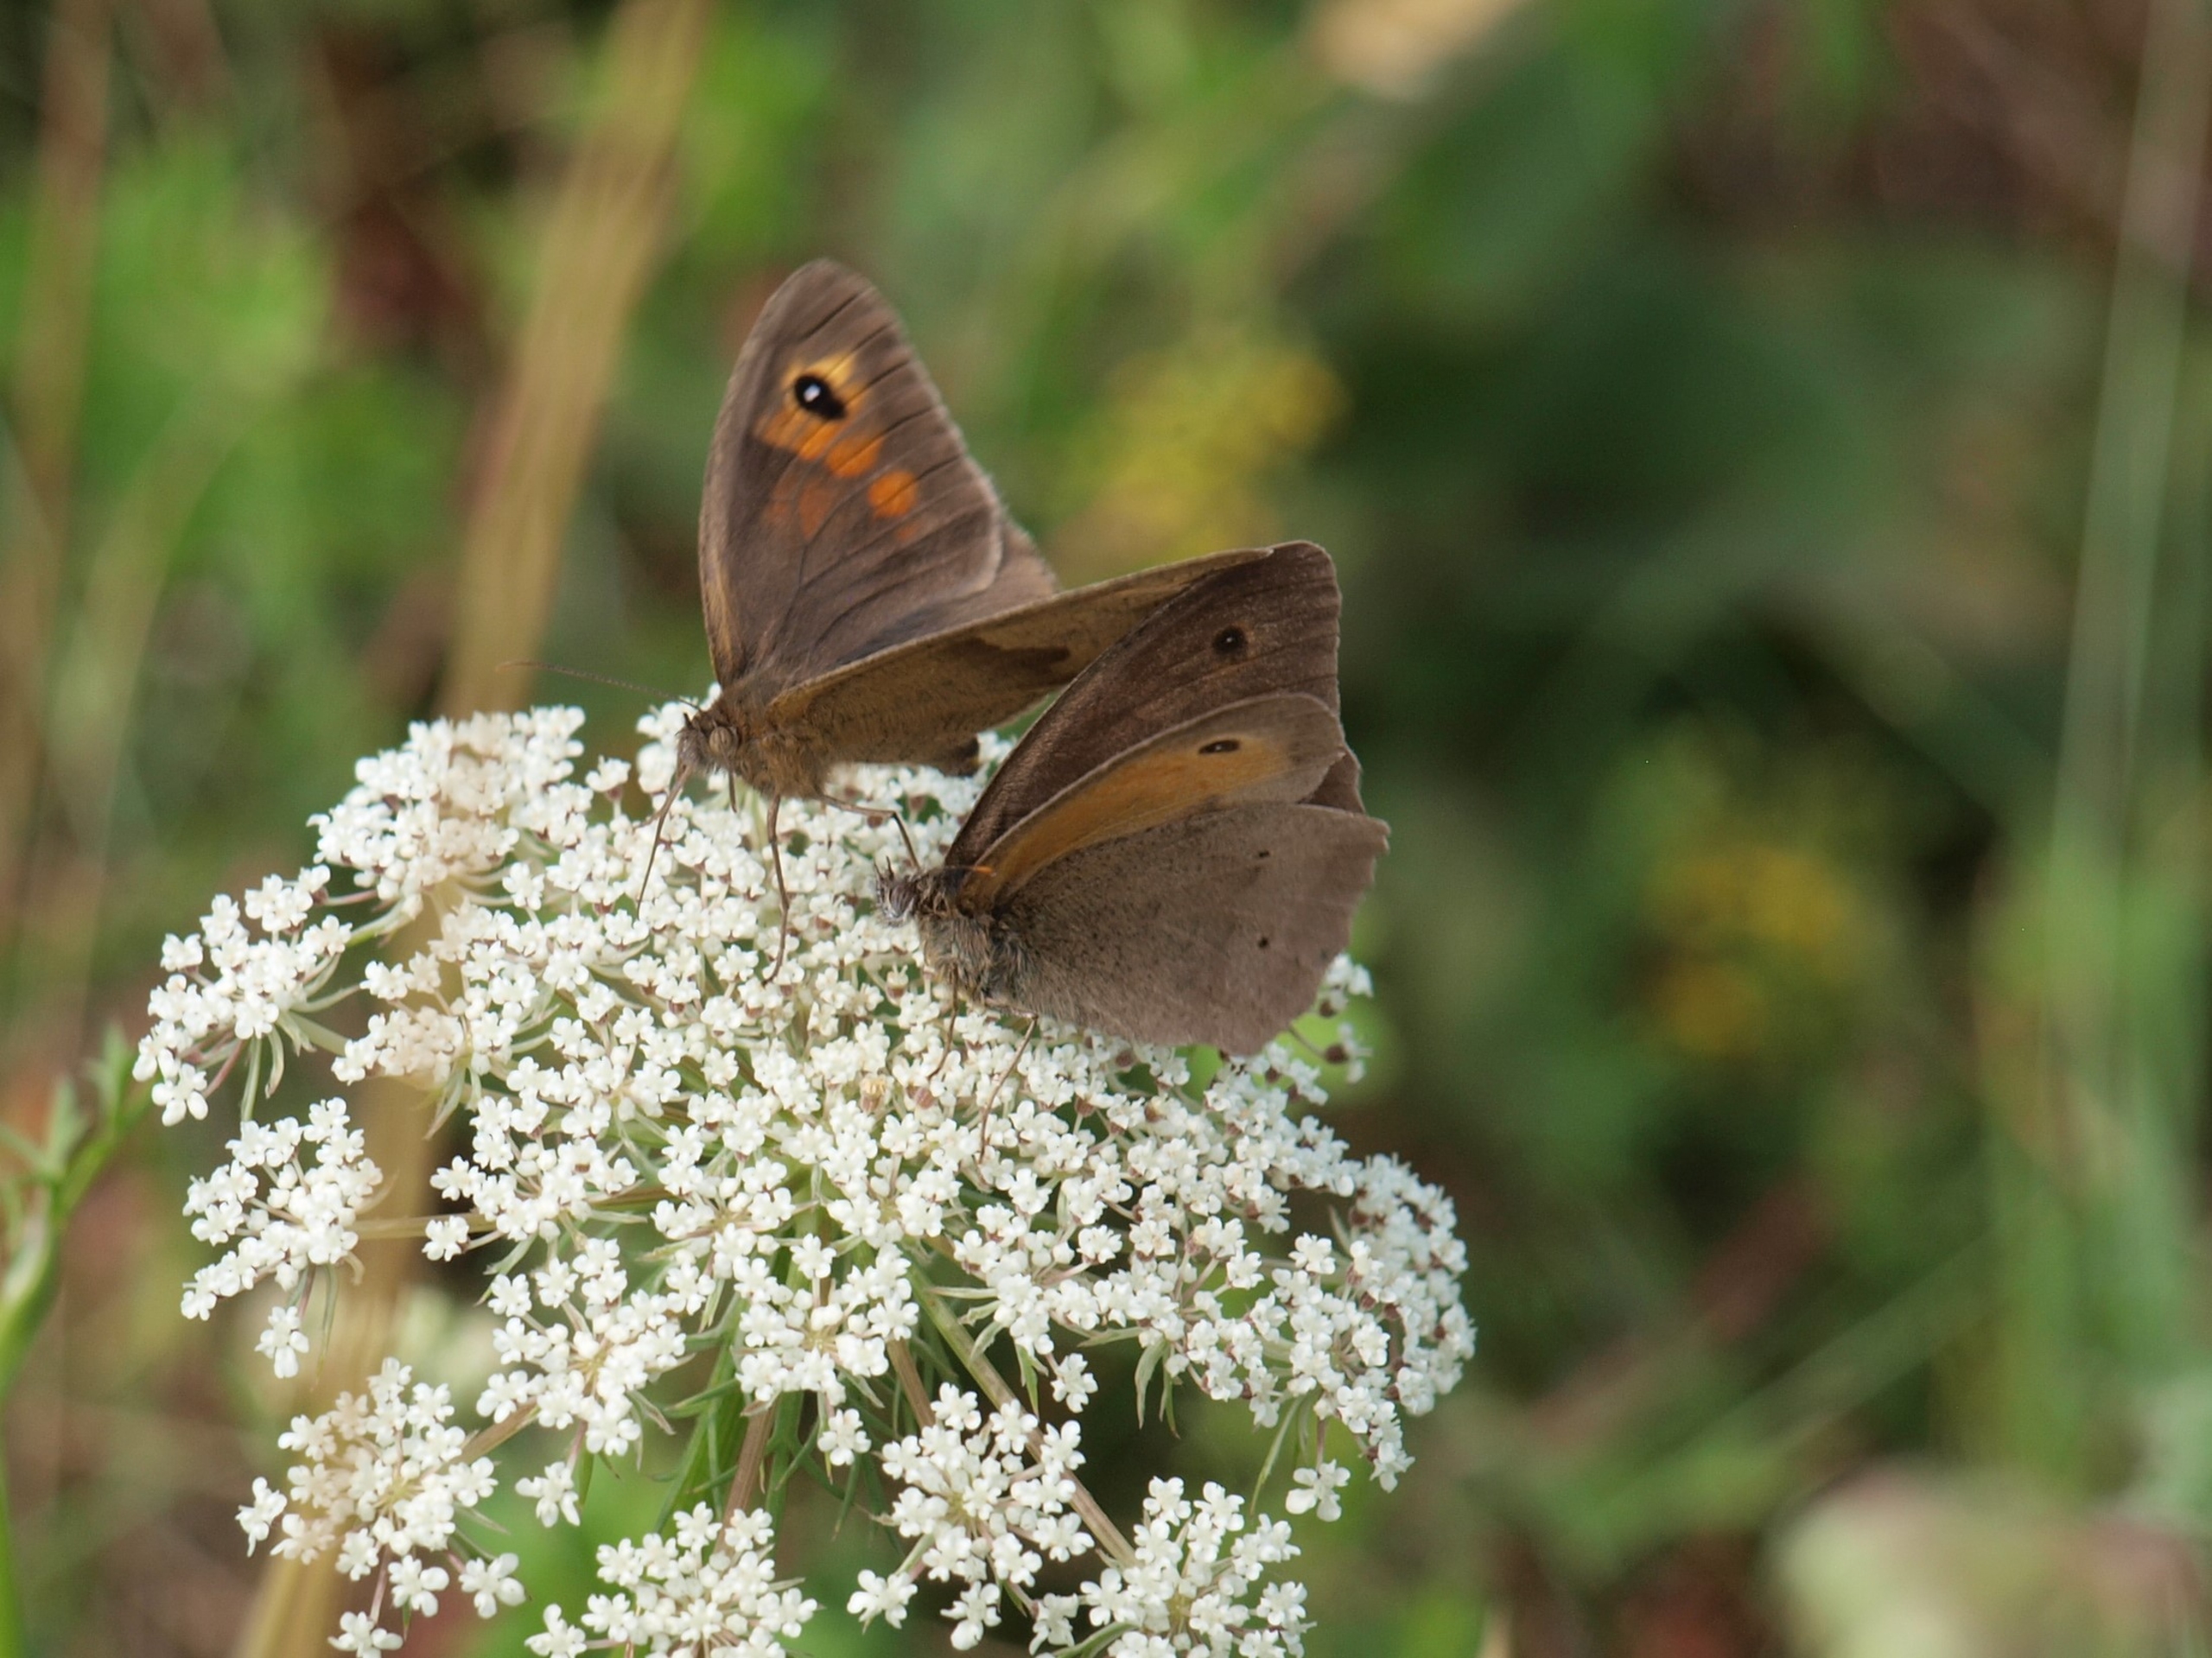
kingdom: Animalia
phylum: Arthropoda
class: Insecta
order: Lepidoptera
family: Nymphalidae
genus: Maniola
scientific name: Maniola jurtina
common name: Græsrandøje
